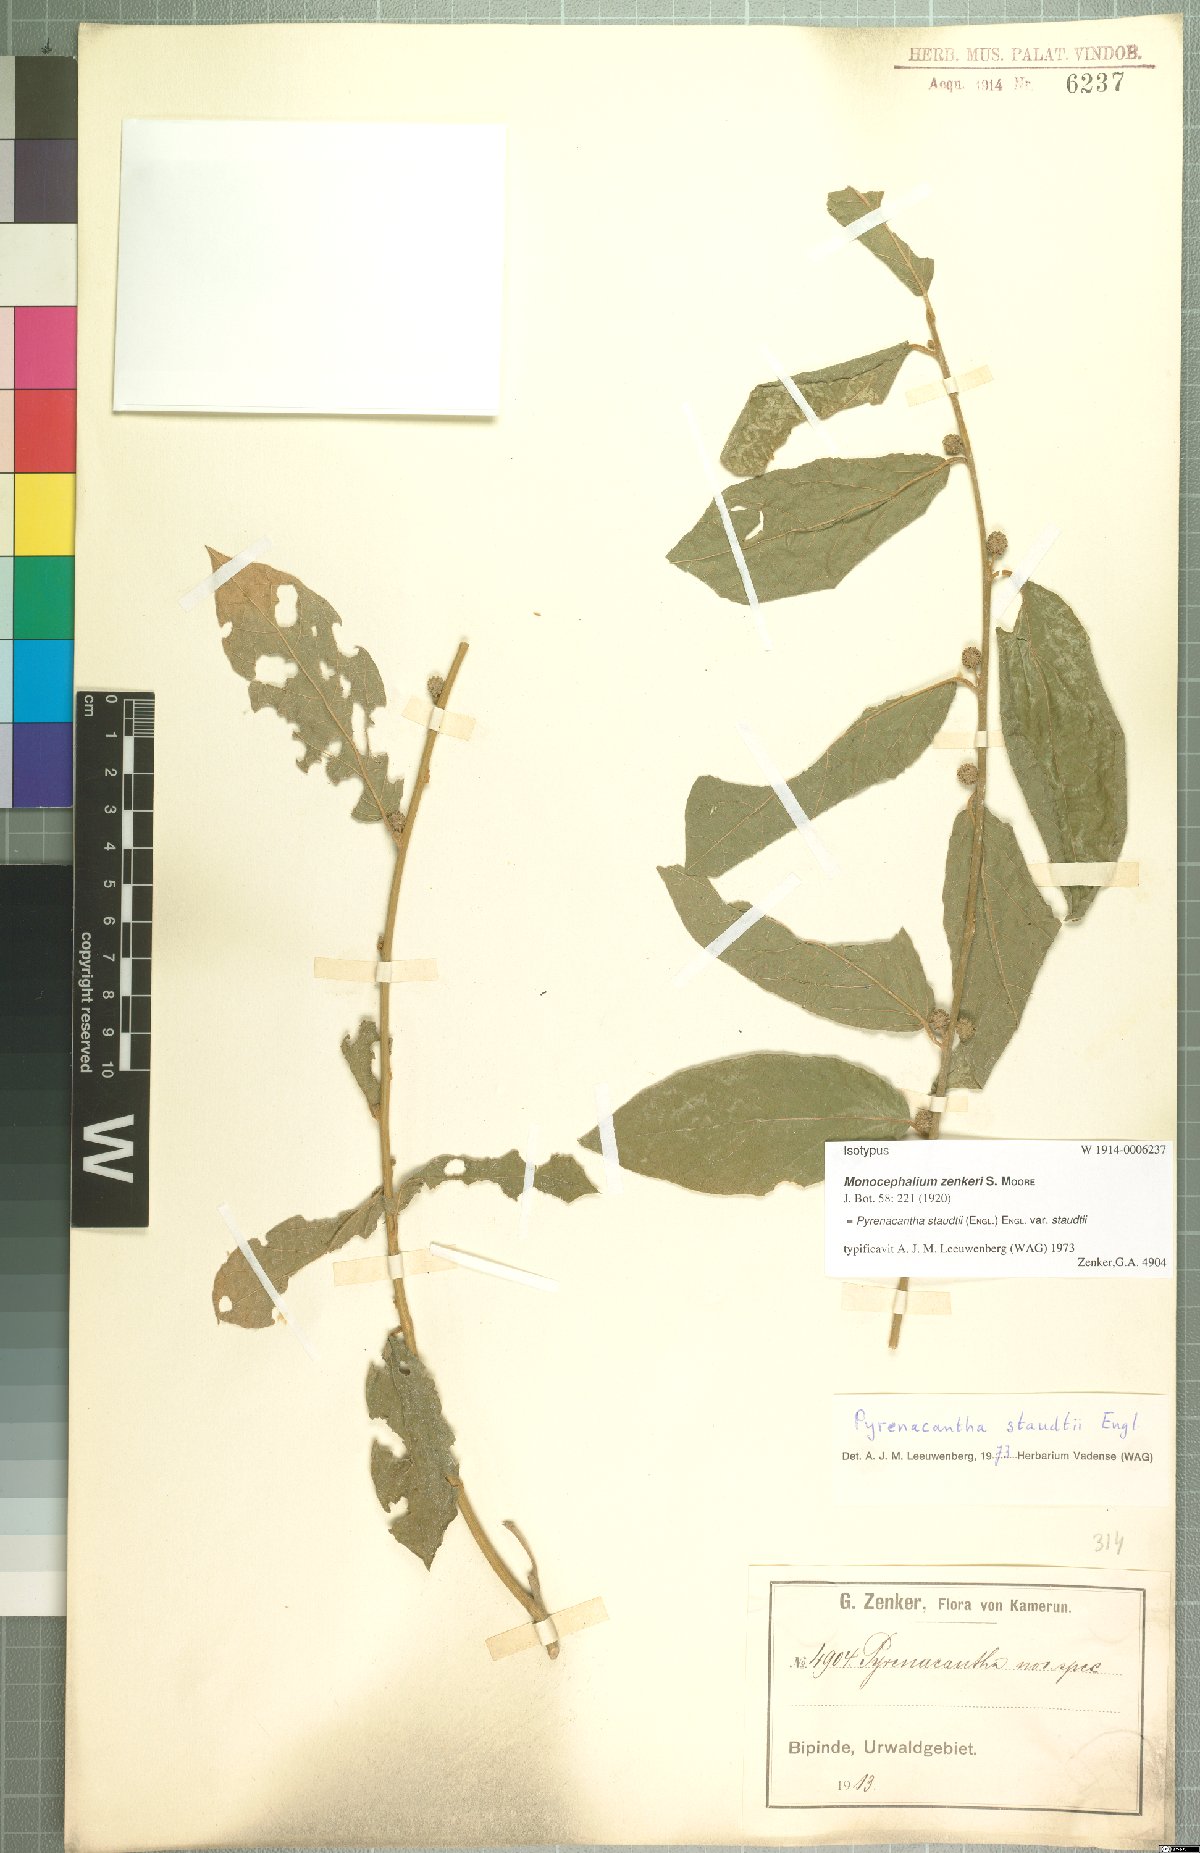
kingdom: Plantae
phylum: Tracheophyta
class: Magnoliopsida
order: Icacinales
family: Icacinaceae
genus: Pyrenacantha
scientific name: Pyrenacantha staudtii
